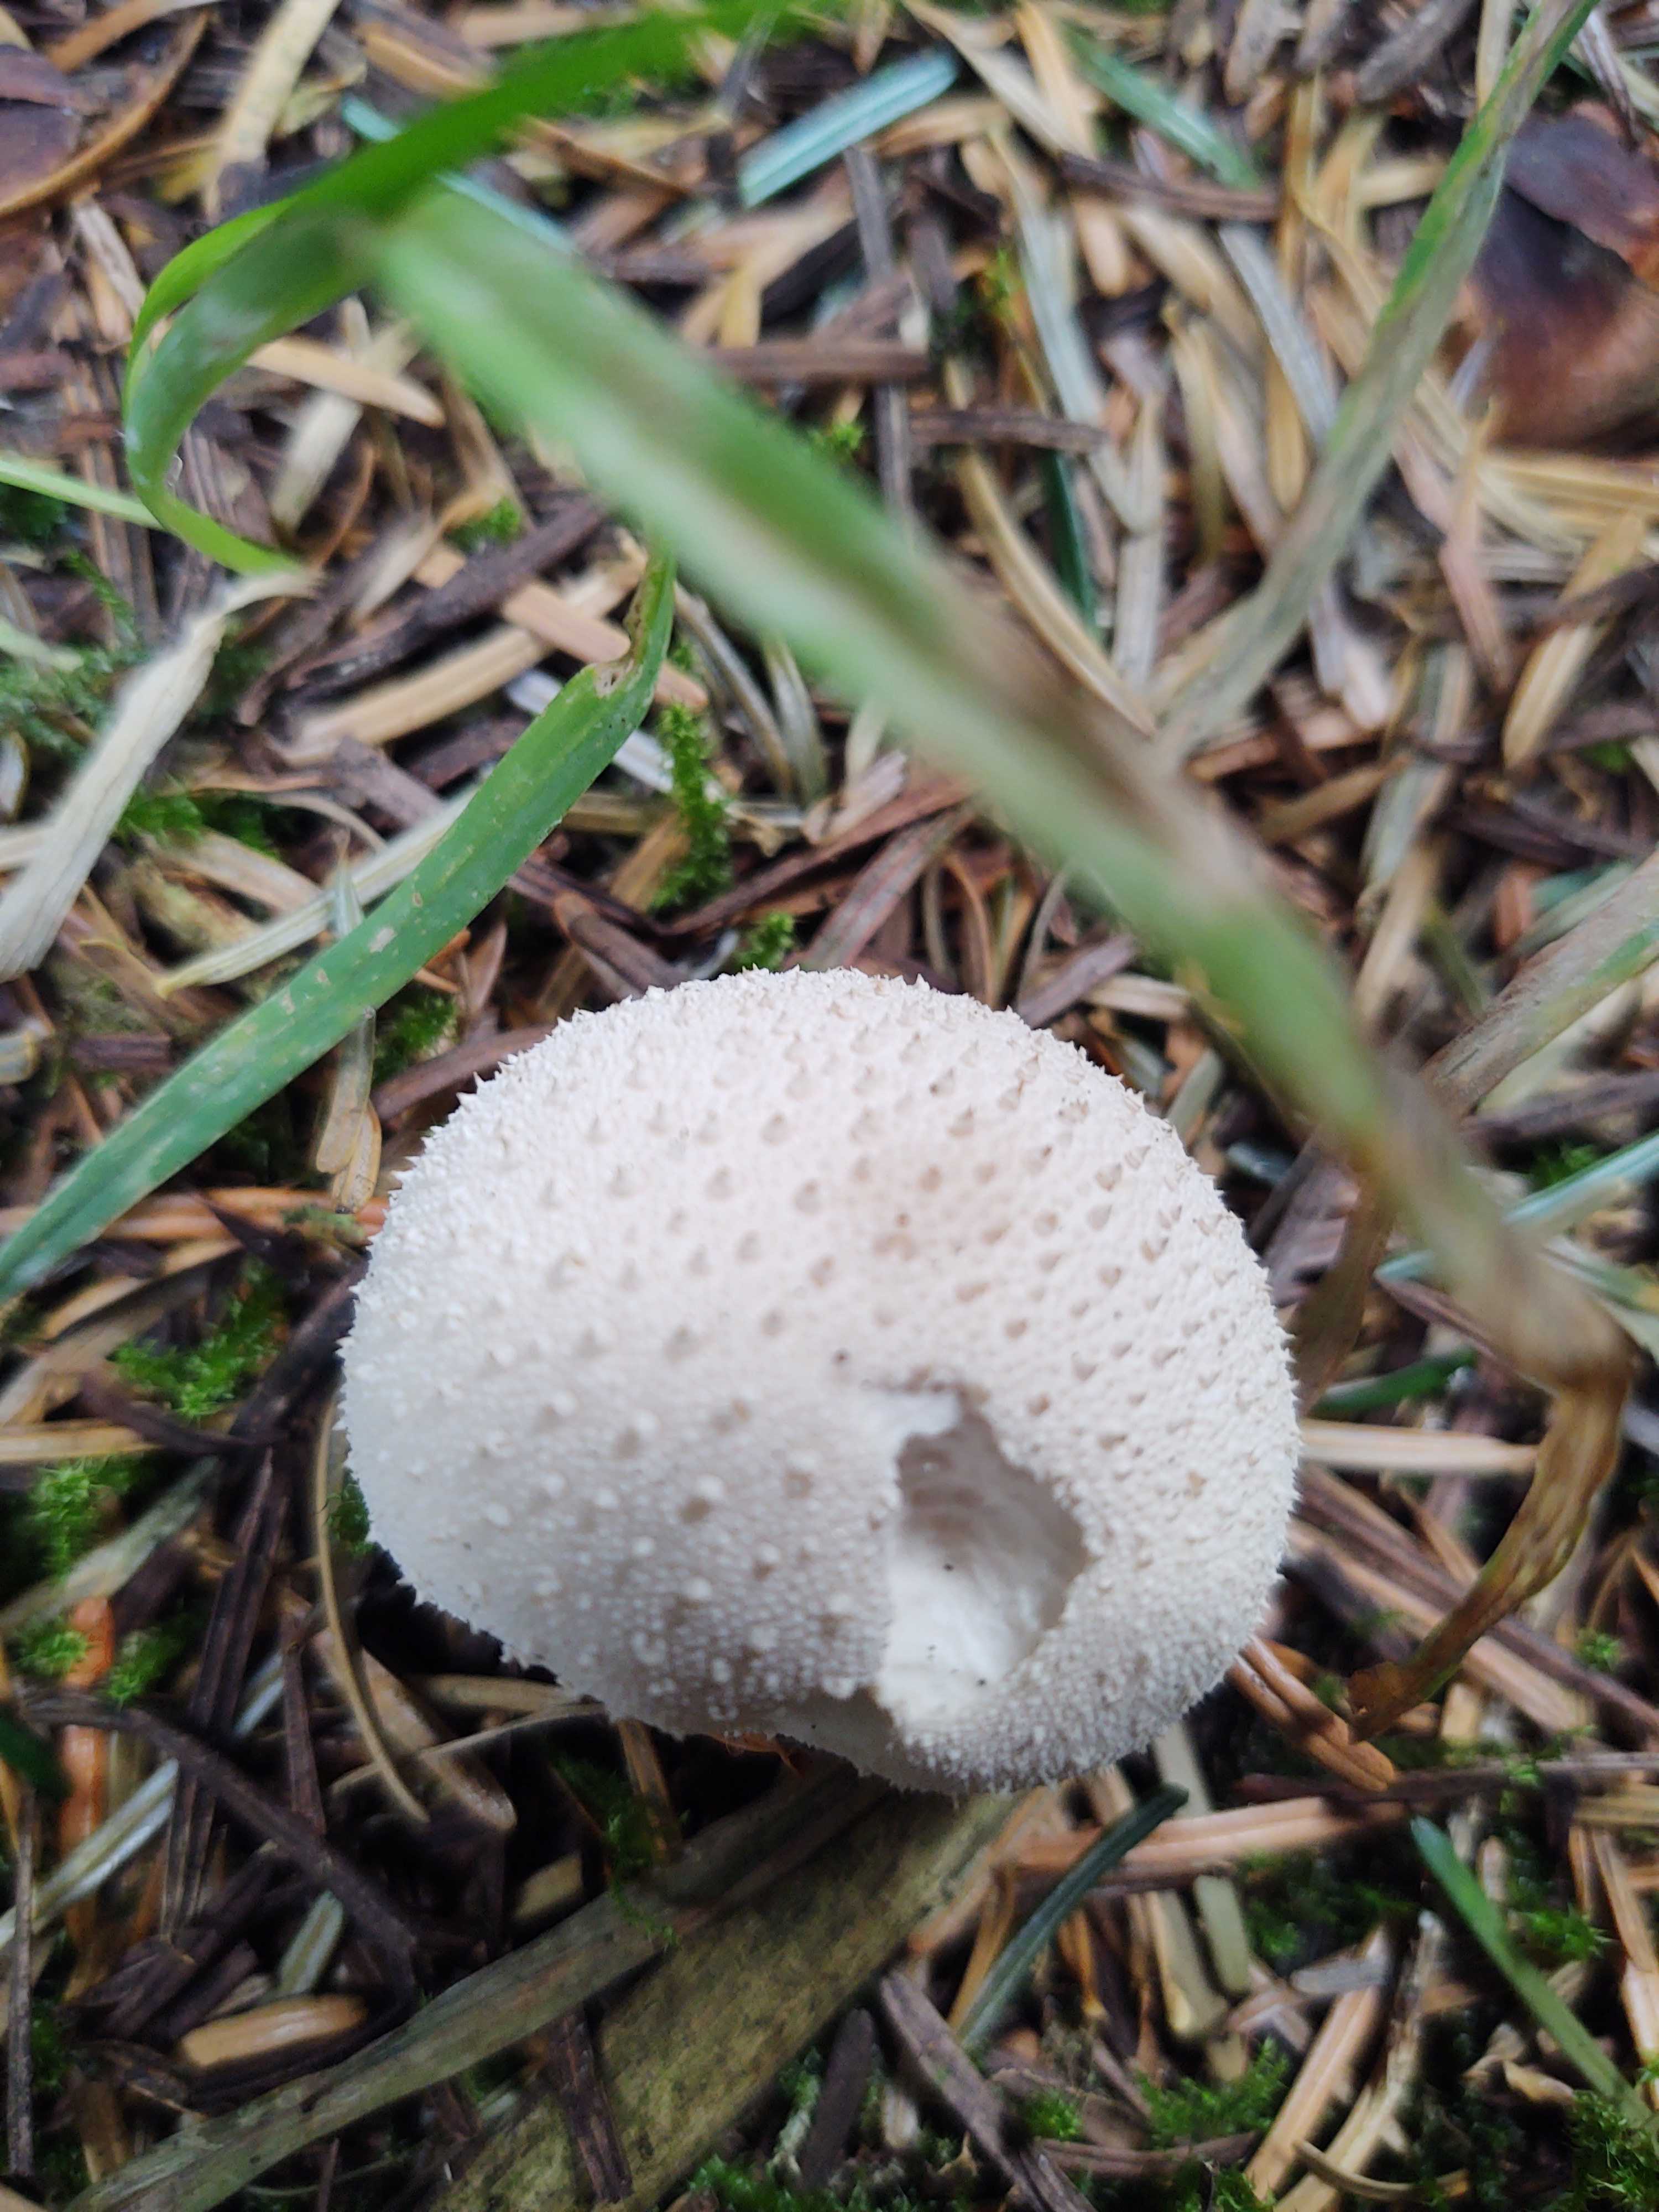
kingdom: Fungi
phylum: Basidiomycota
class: Agaricomycetes
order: Agaricales
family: Lycoperdaceae
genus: Lycoperdon
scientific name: Lycoperdon perlatum
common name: krystal-støvbold
